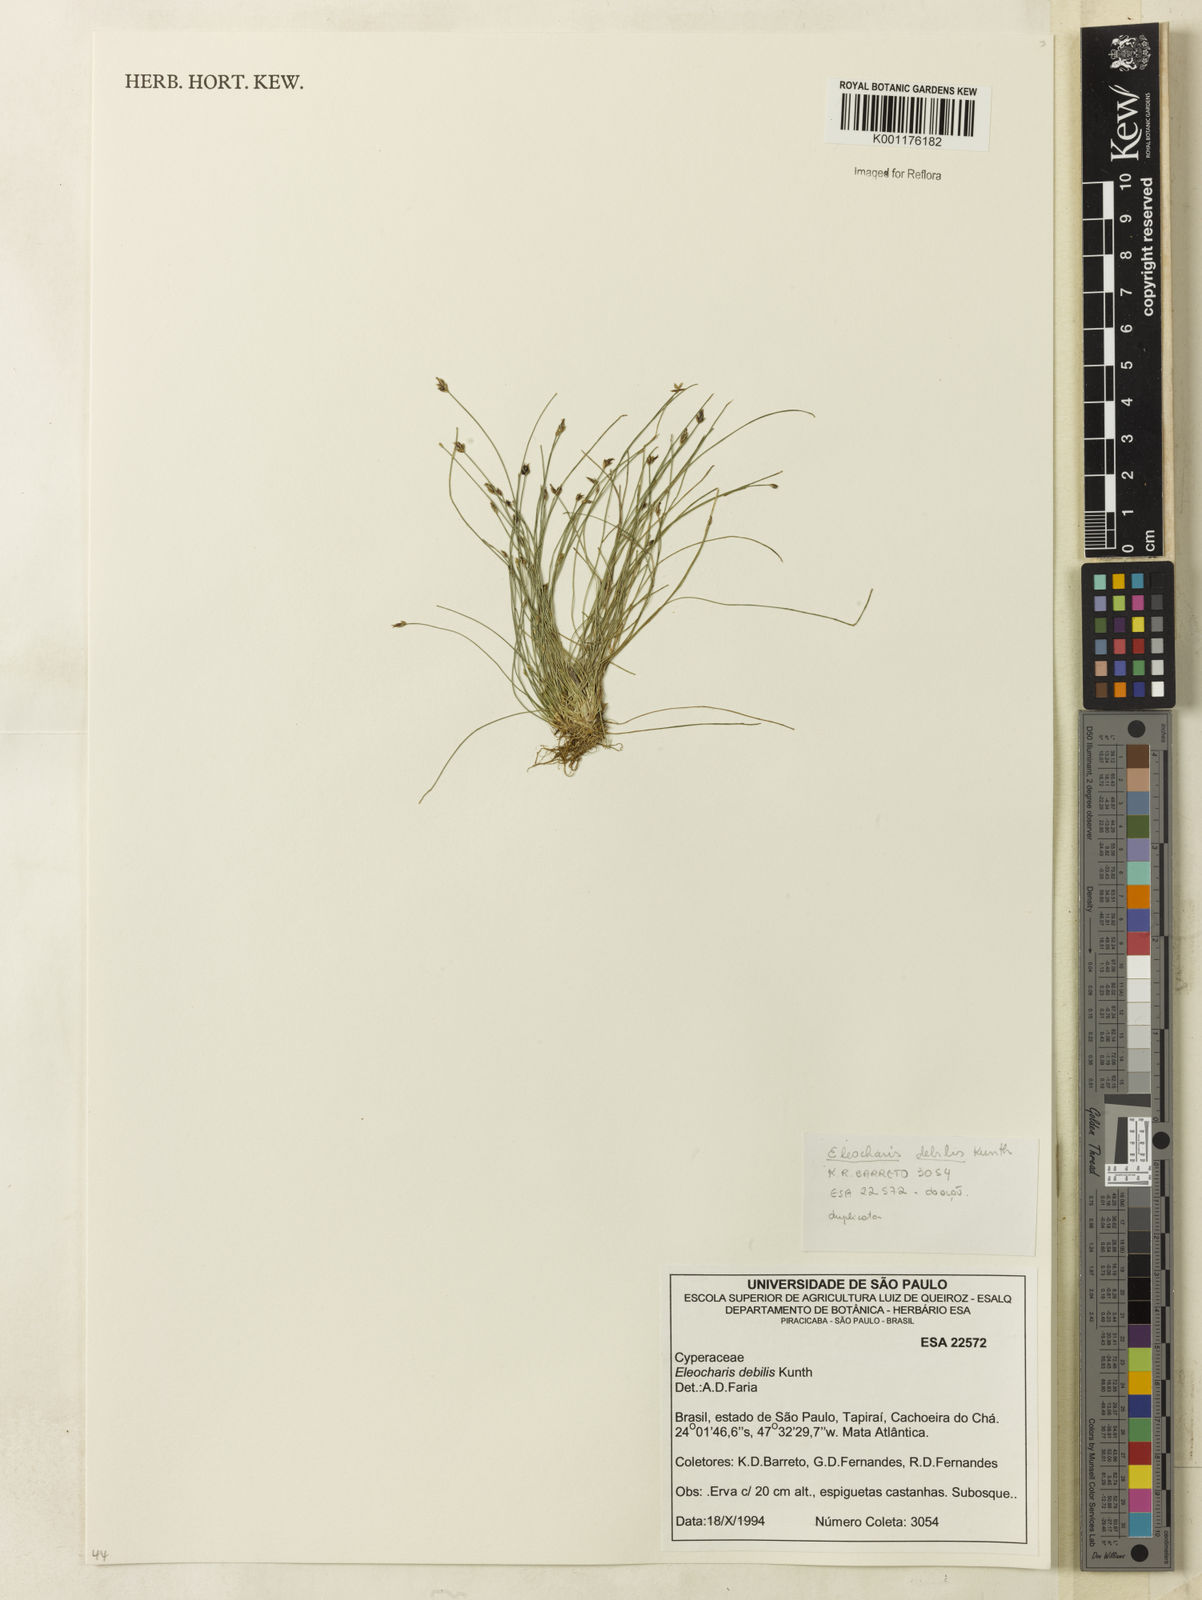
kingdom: Plantae
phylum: Tracheophyta
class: Liliopsida
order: Poales
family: Cyperaceae
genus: Eleocharis
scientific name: Eleocharis maculosa
